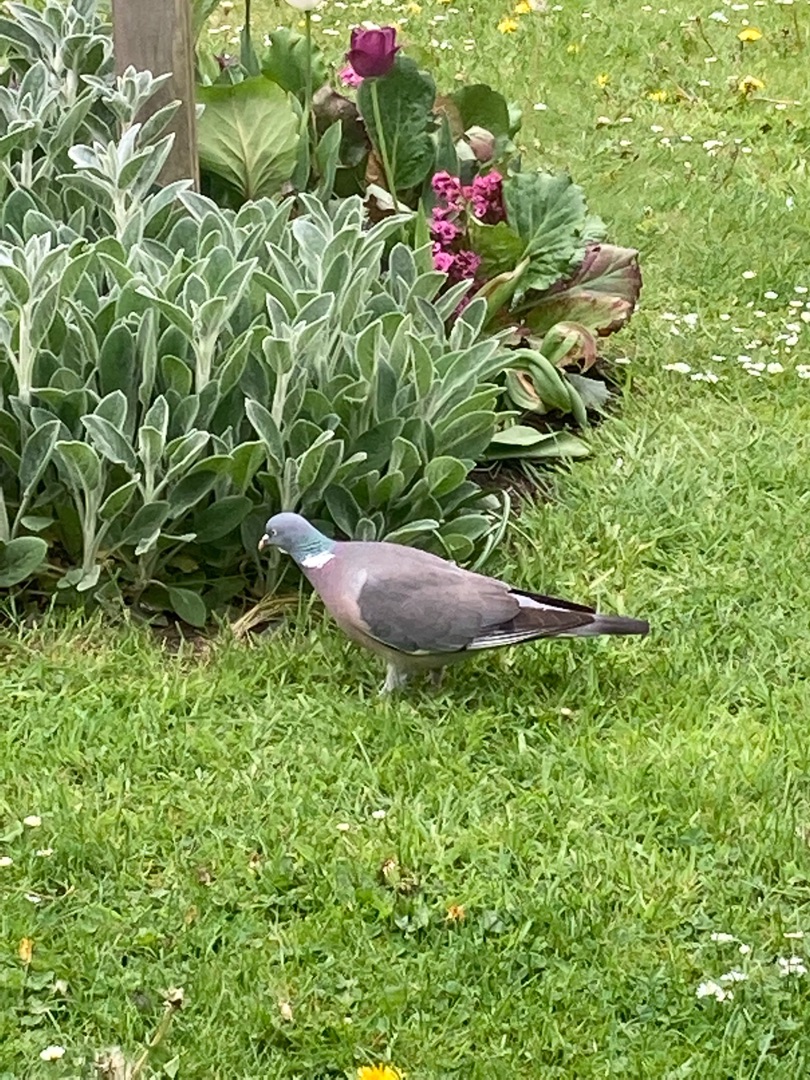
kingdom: Animalia
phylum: Chordata
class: Aves
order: Columbiformes
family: Columbidae
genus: Columba
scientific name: Columba palumbus
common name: Ringdue
